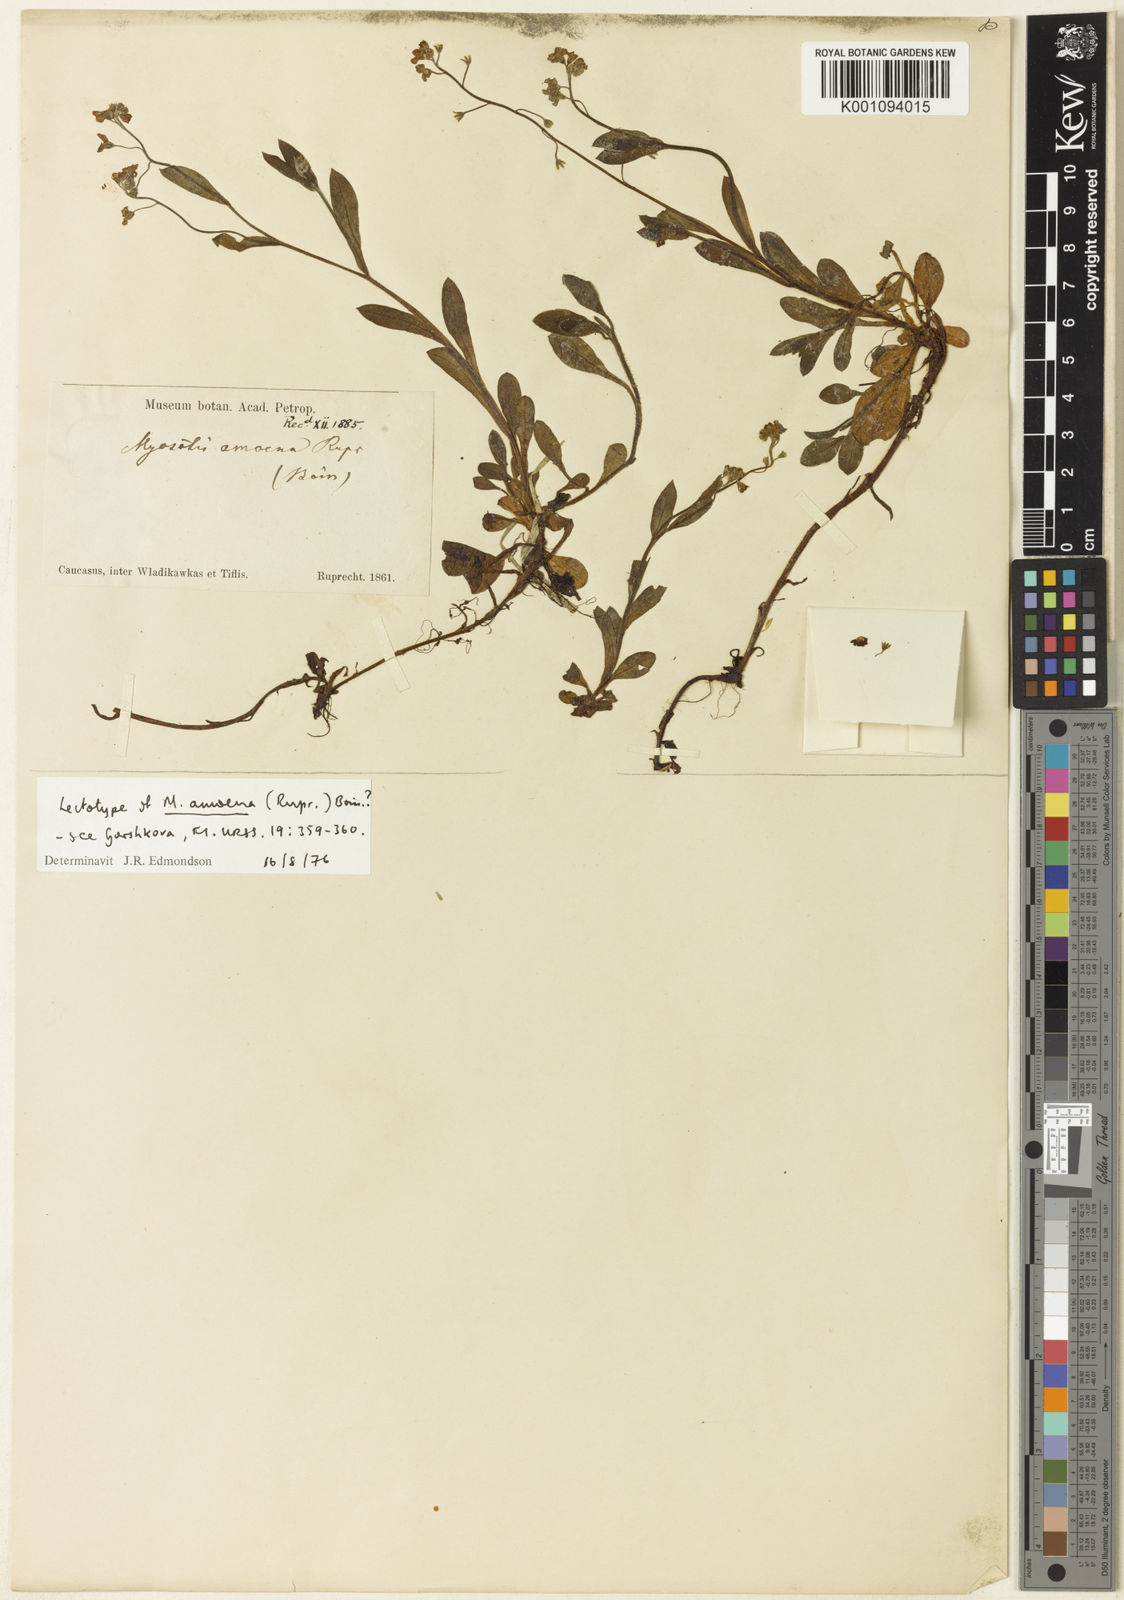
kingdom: Plantae
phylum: Tracheophyta
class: Magnoliopsida
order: Boraginales
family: Boraginaceae
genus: Myosotis
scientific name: Myosotis
